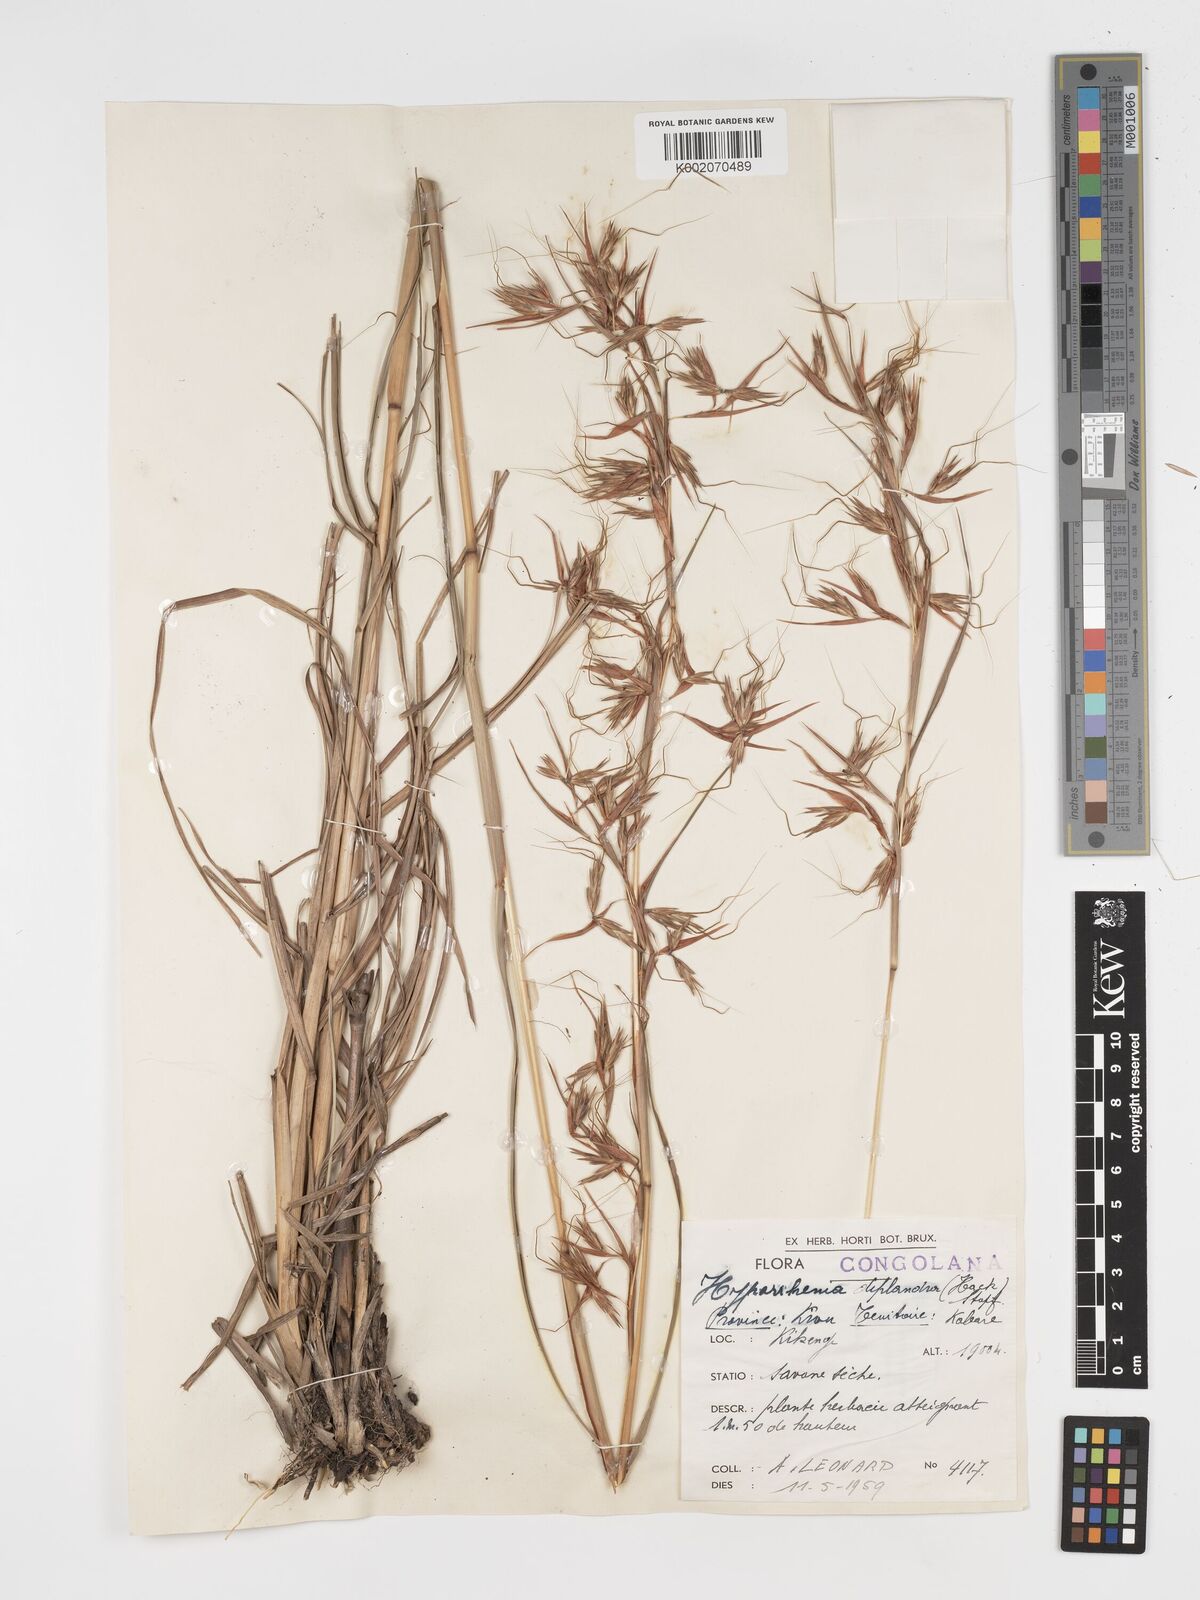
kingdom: Plantae
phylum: Tracheophyta
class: Liliopsida
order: Poales
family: Poaceae
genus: Hyparrhenia
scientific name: Hyparrhenia diplandra
